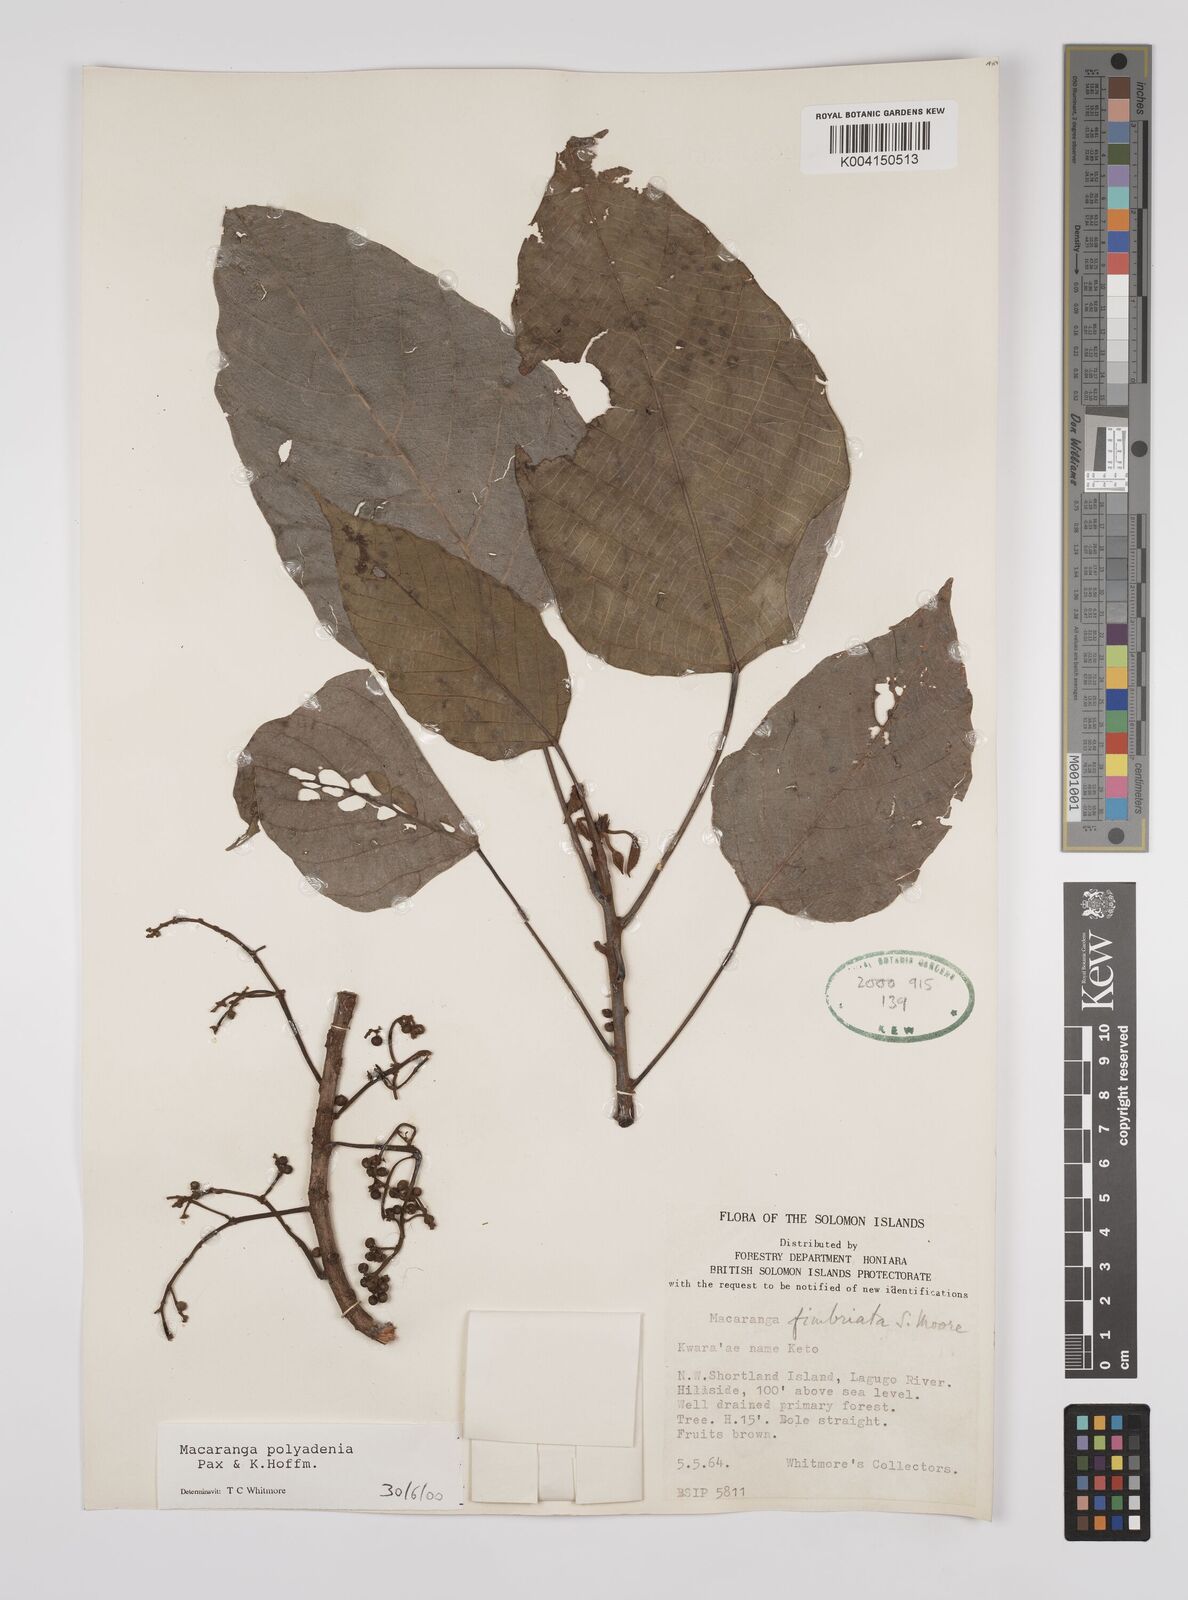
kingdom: Plantae
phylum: Tracheophyta
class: Magnoliopsida
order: Malpighiales
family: Euphorbiaceae
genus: Macaranga
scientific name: Macaranga polyadenia
